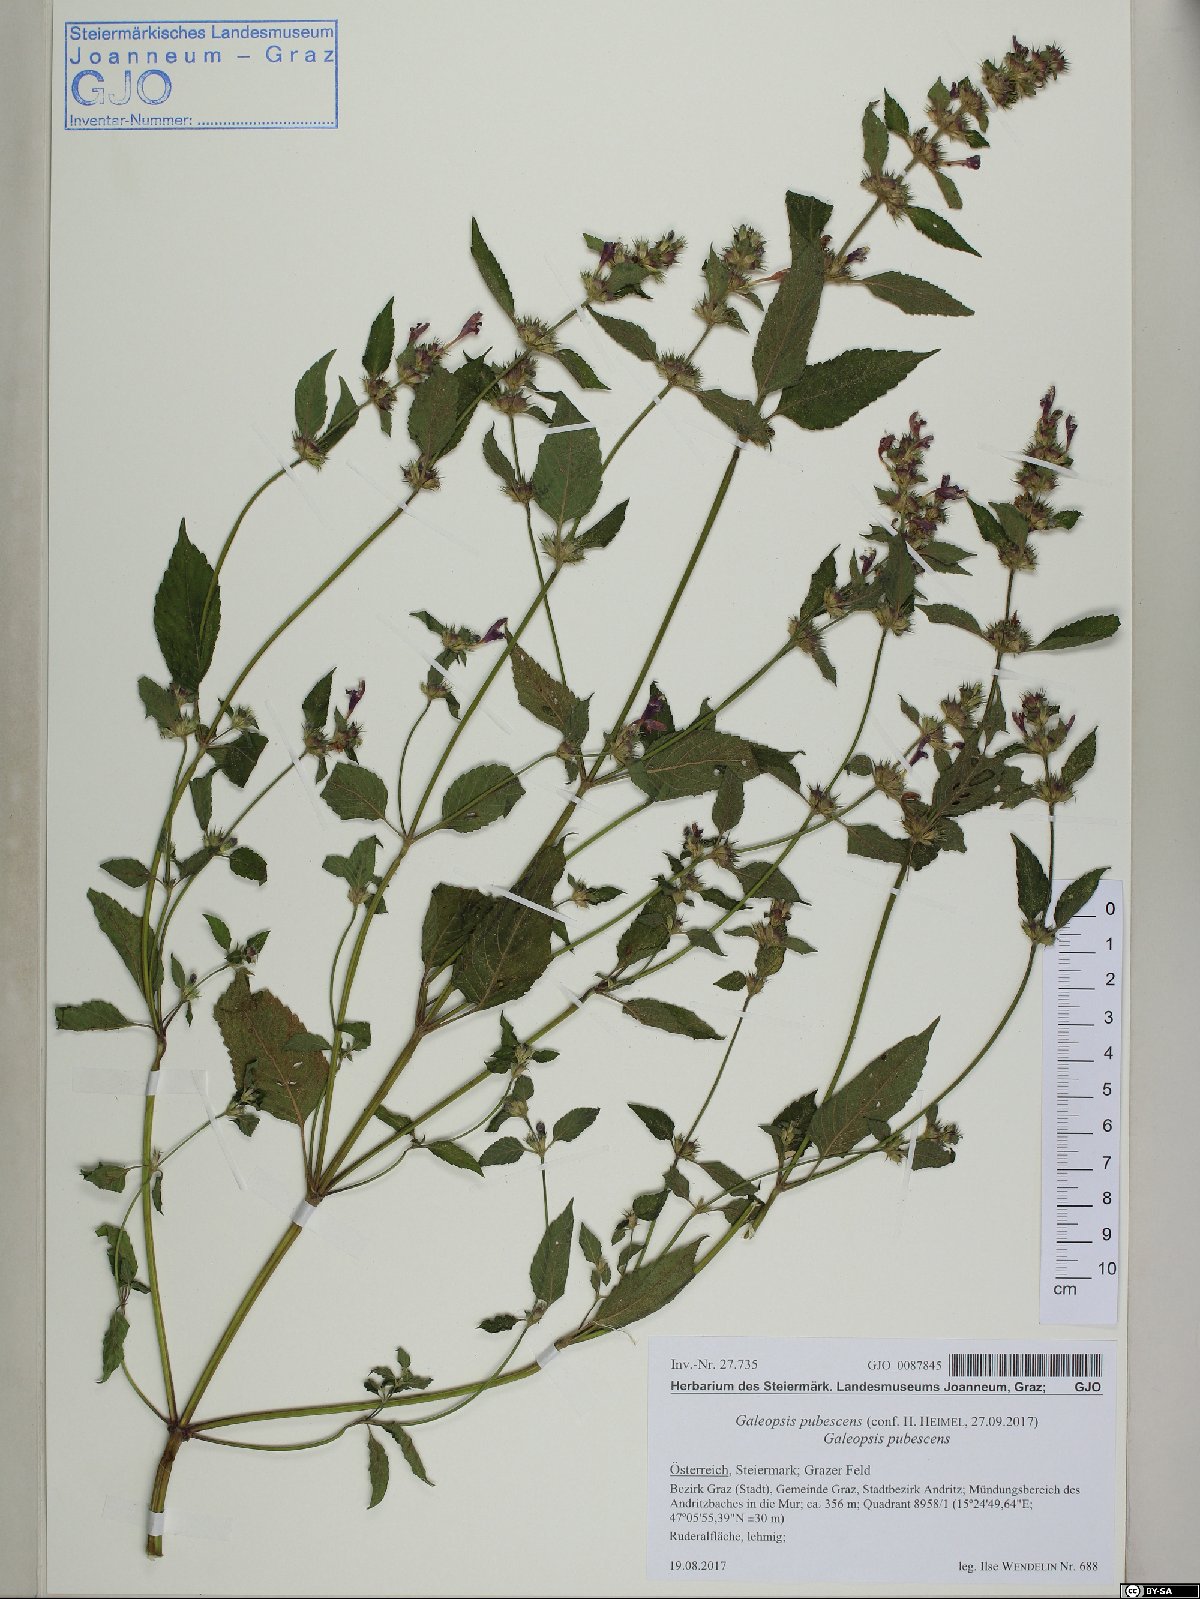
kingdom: Plantae
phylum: Tracheophyta
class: Magnoliopsida
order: Lamiales
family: Lamiaceae
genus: Galeopsis
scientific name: Galeopsis pubescens
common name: Downy hemp-nettle
